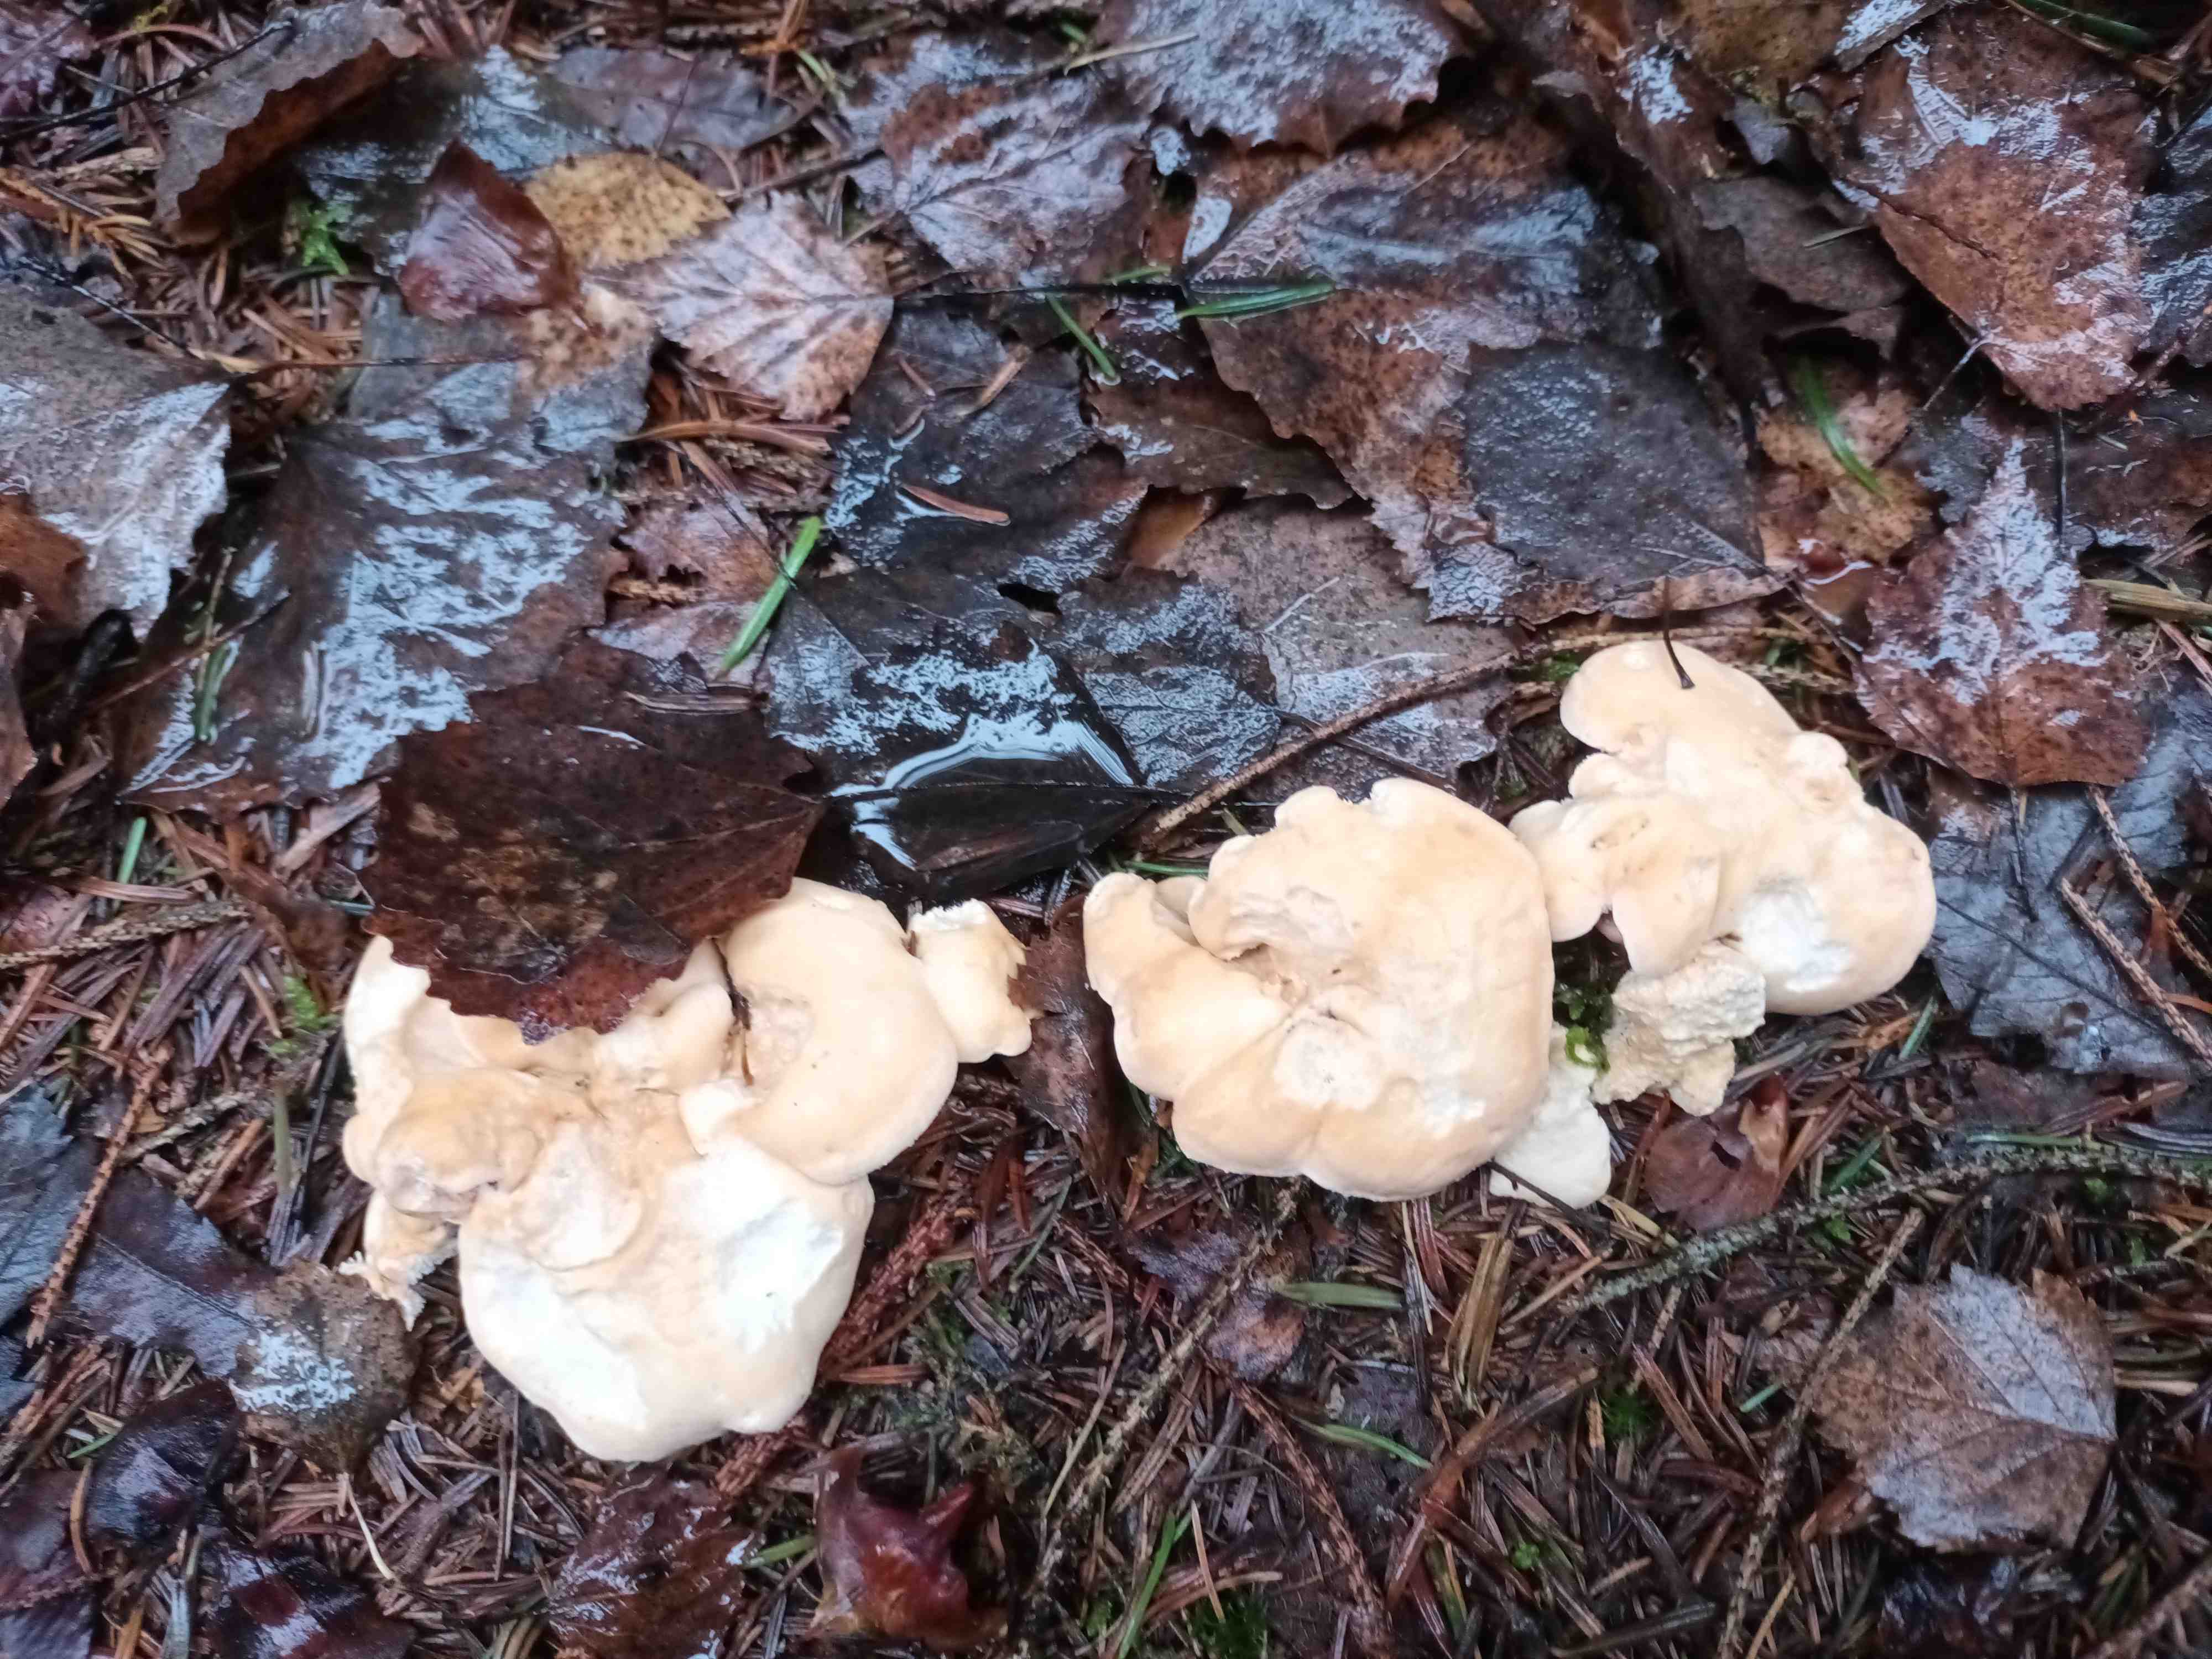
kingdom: Fungi
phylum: Basidiomycota
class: Agaricomycetes
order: Cantharellales
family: Hydnaceae
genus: Hydnum
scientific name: Hydnum repandum
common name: almindelig pigsvamp
